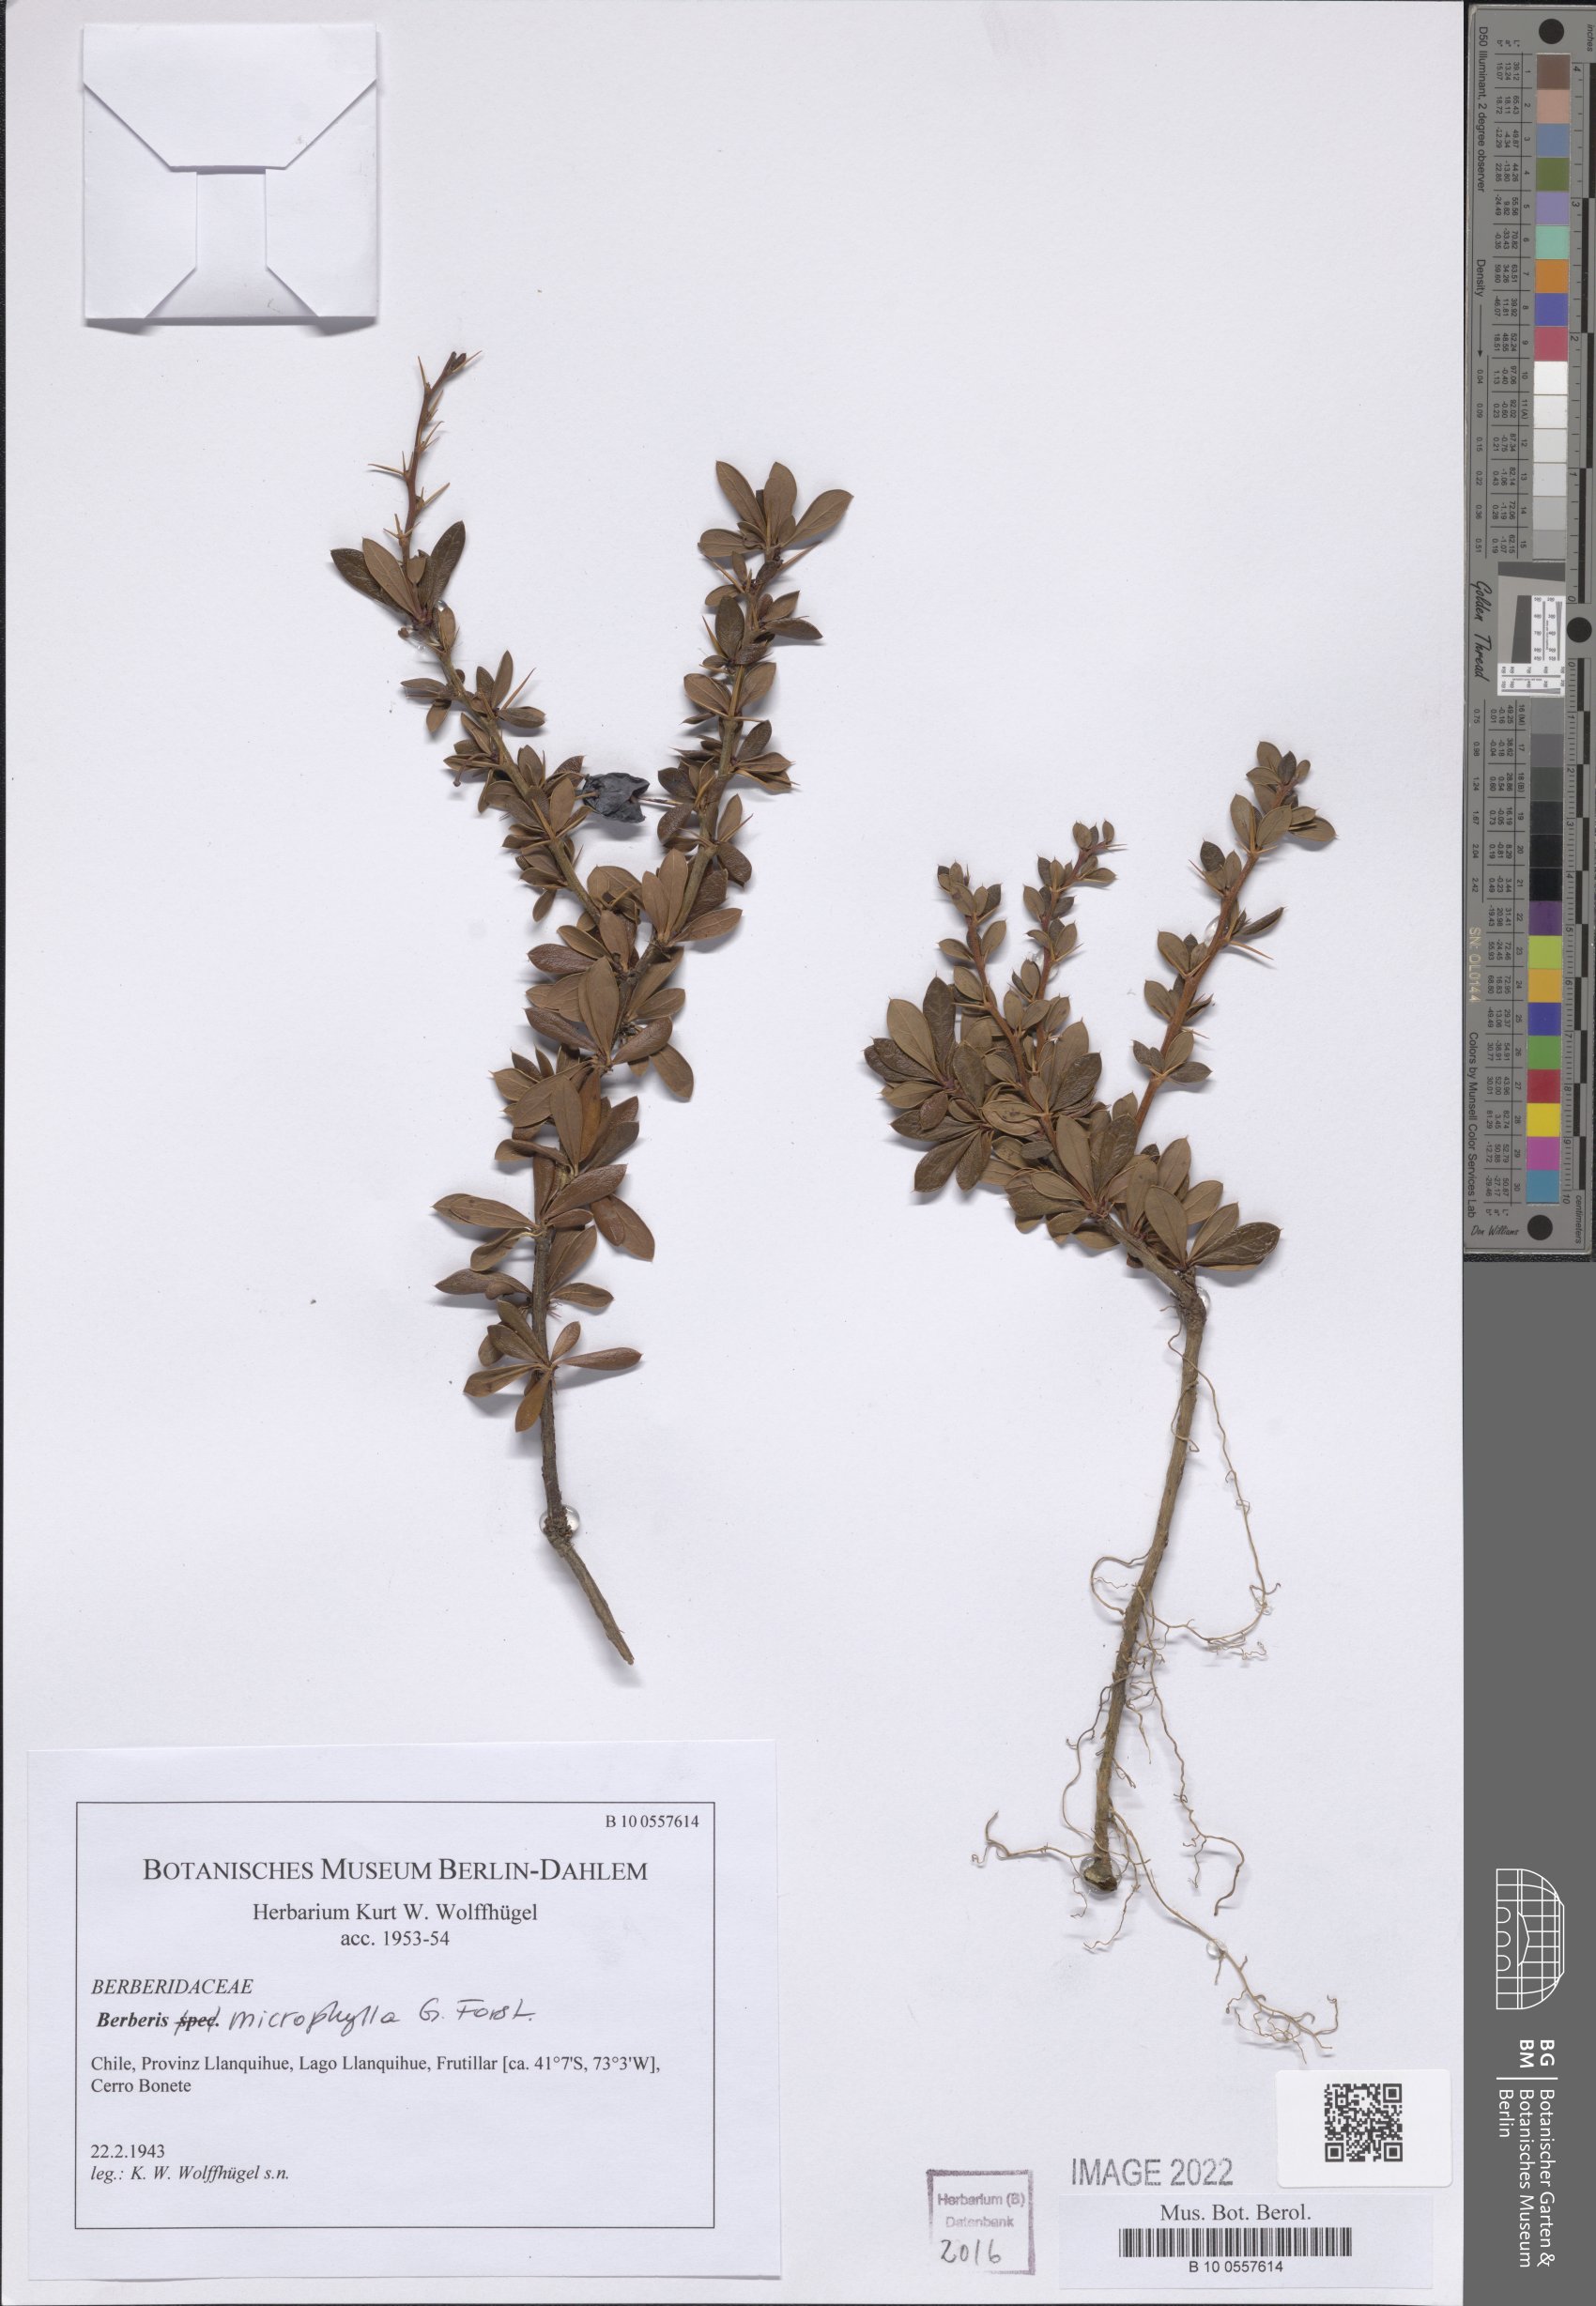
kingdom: Plantae
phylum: Tracheophyta
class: Magnoliopsida
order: Ranunculales
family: Berberidaceae
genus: Berberis
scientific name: Berberis microphylla
